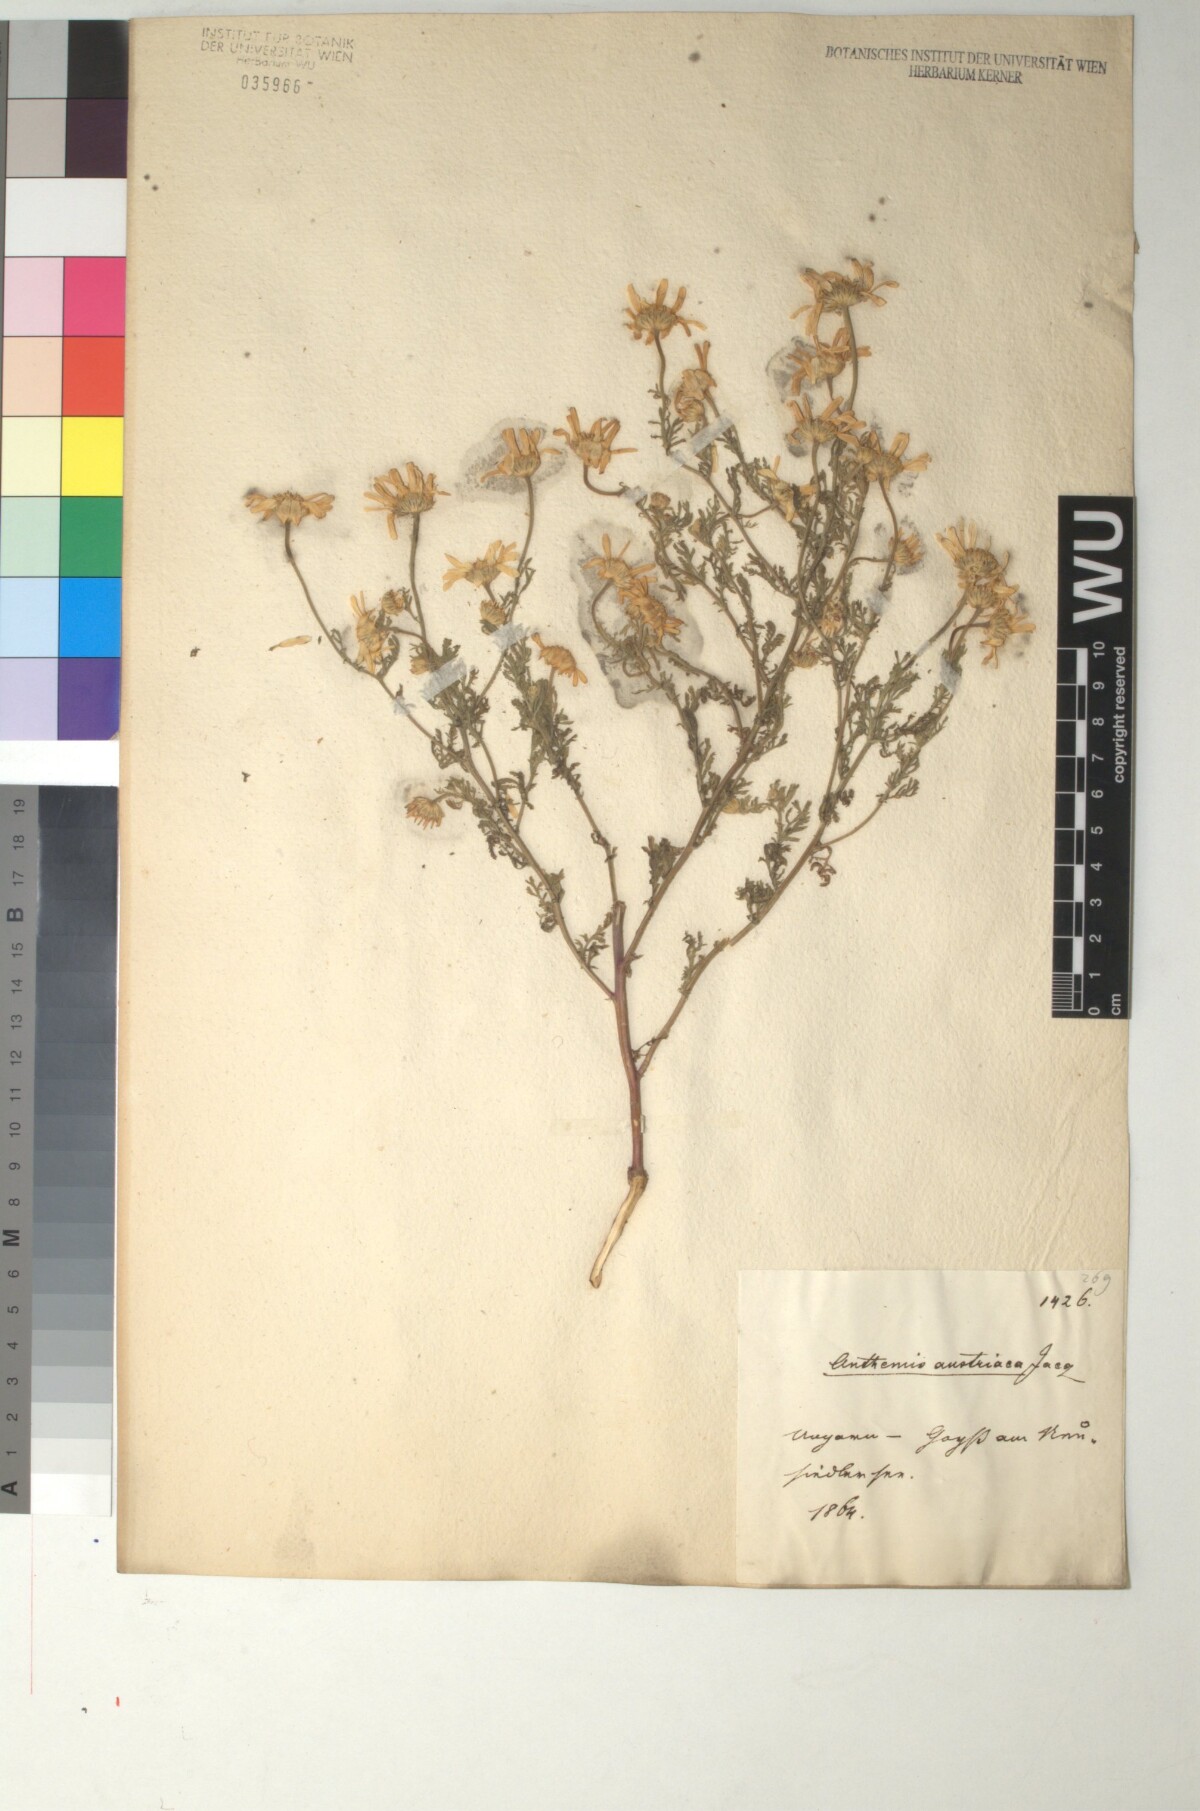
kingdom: Plantae
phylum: Tracheophyta
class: Magnoliopsida
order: Asterales
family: Asteraceae
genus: Cota
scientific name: Cota austriaca
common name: Austrian chamomile
